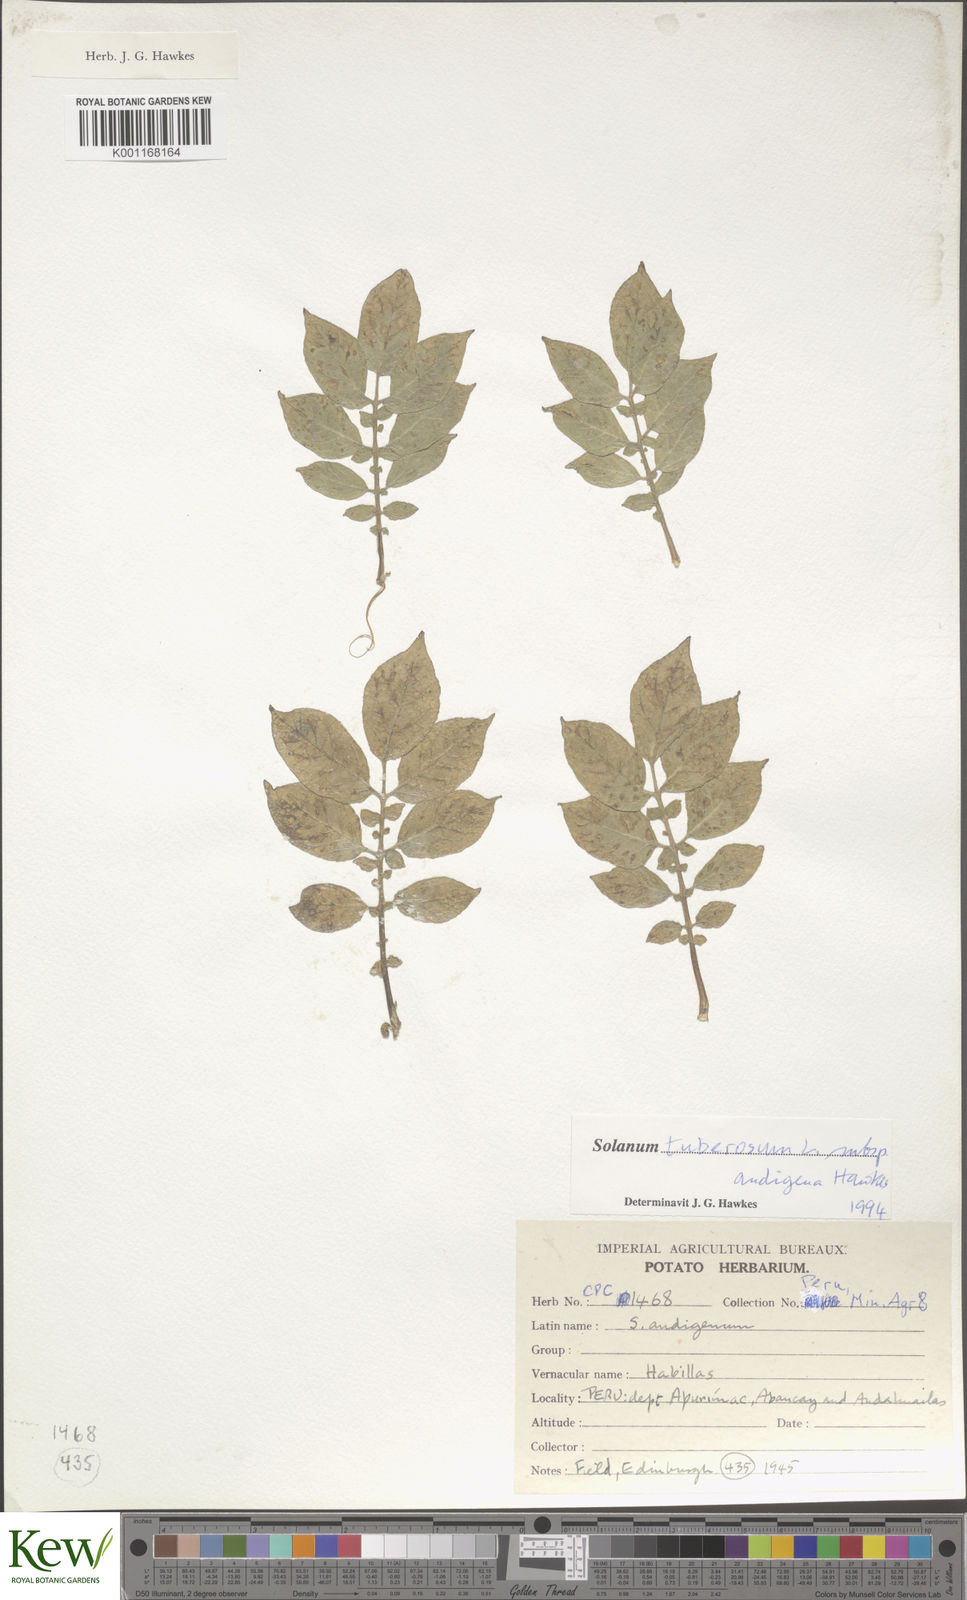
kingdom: Plantae
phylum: Tracheophyta
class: Magnoliopsida
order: Solanales
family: Solanaceae
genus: Solanum
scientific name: Solanum tuberosum
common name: Potato
